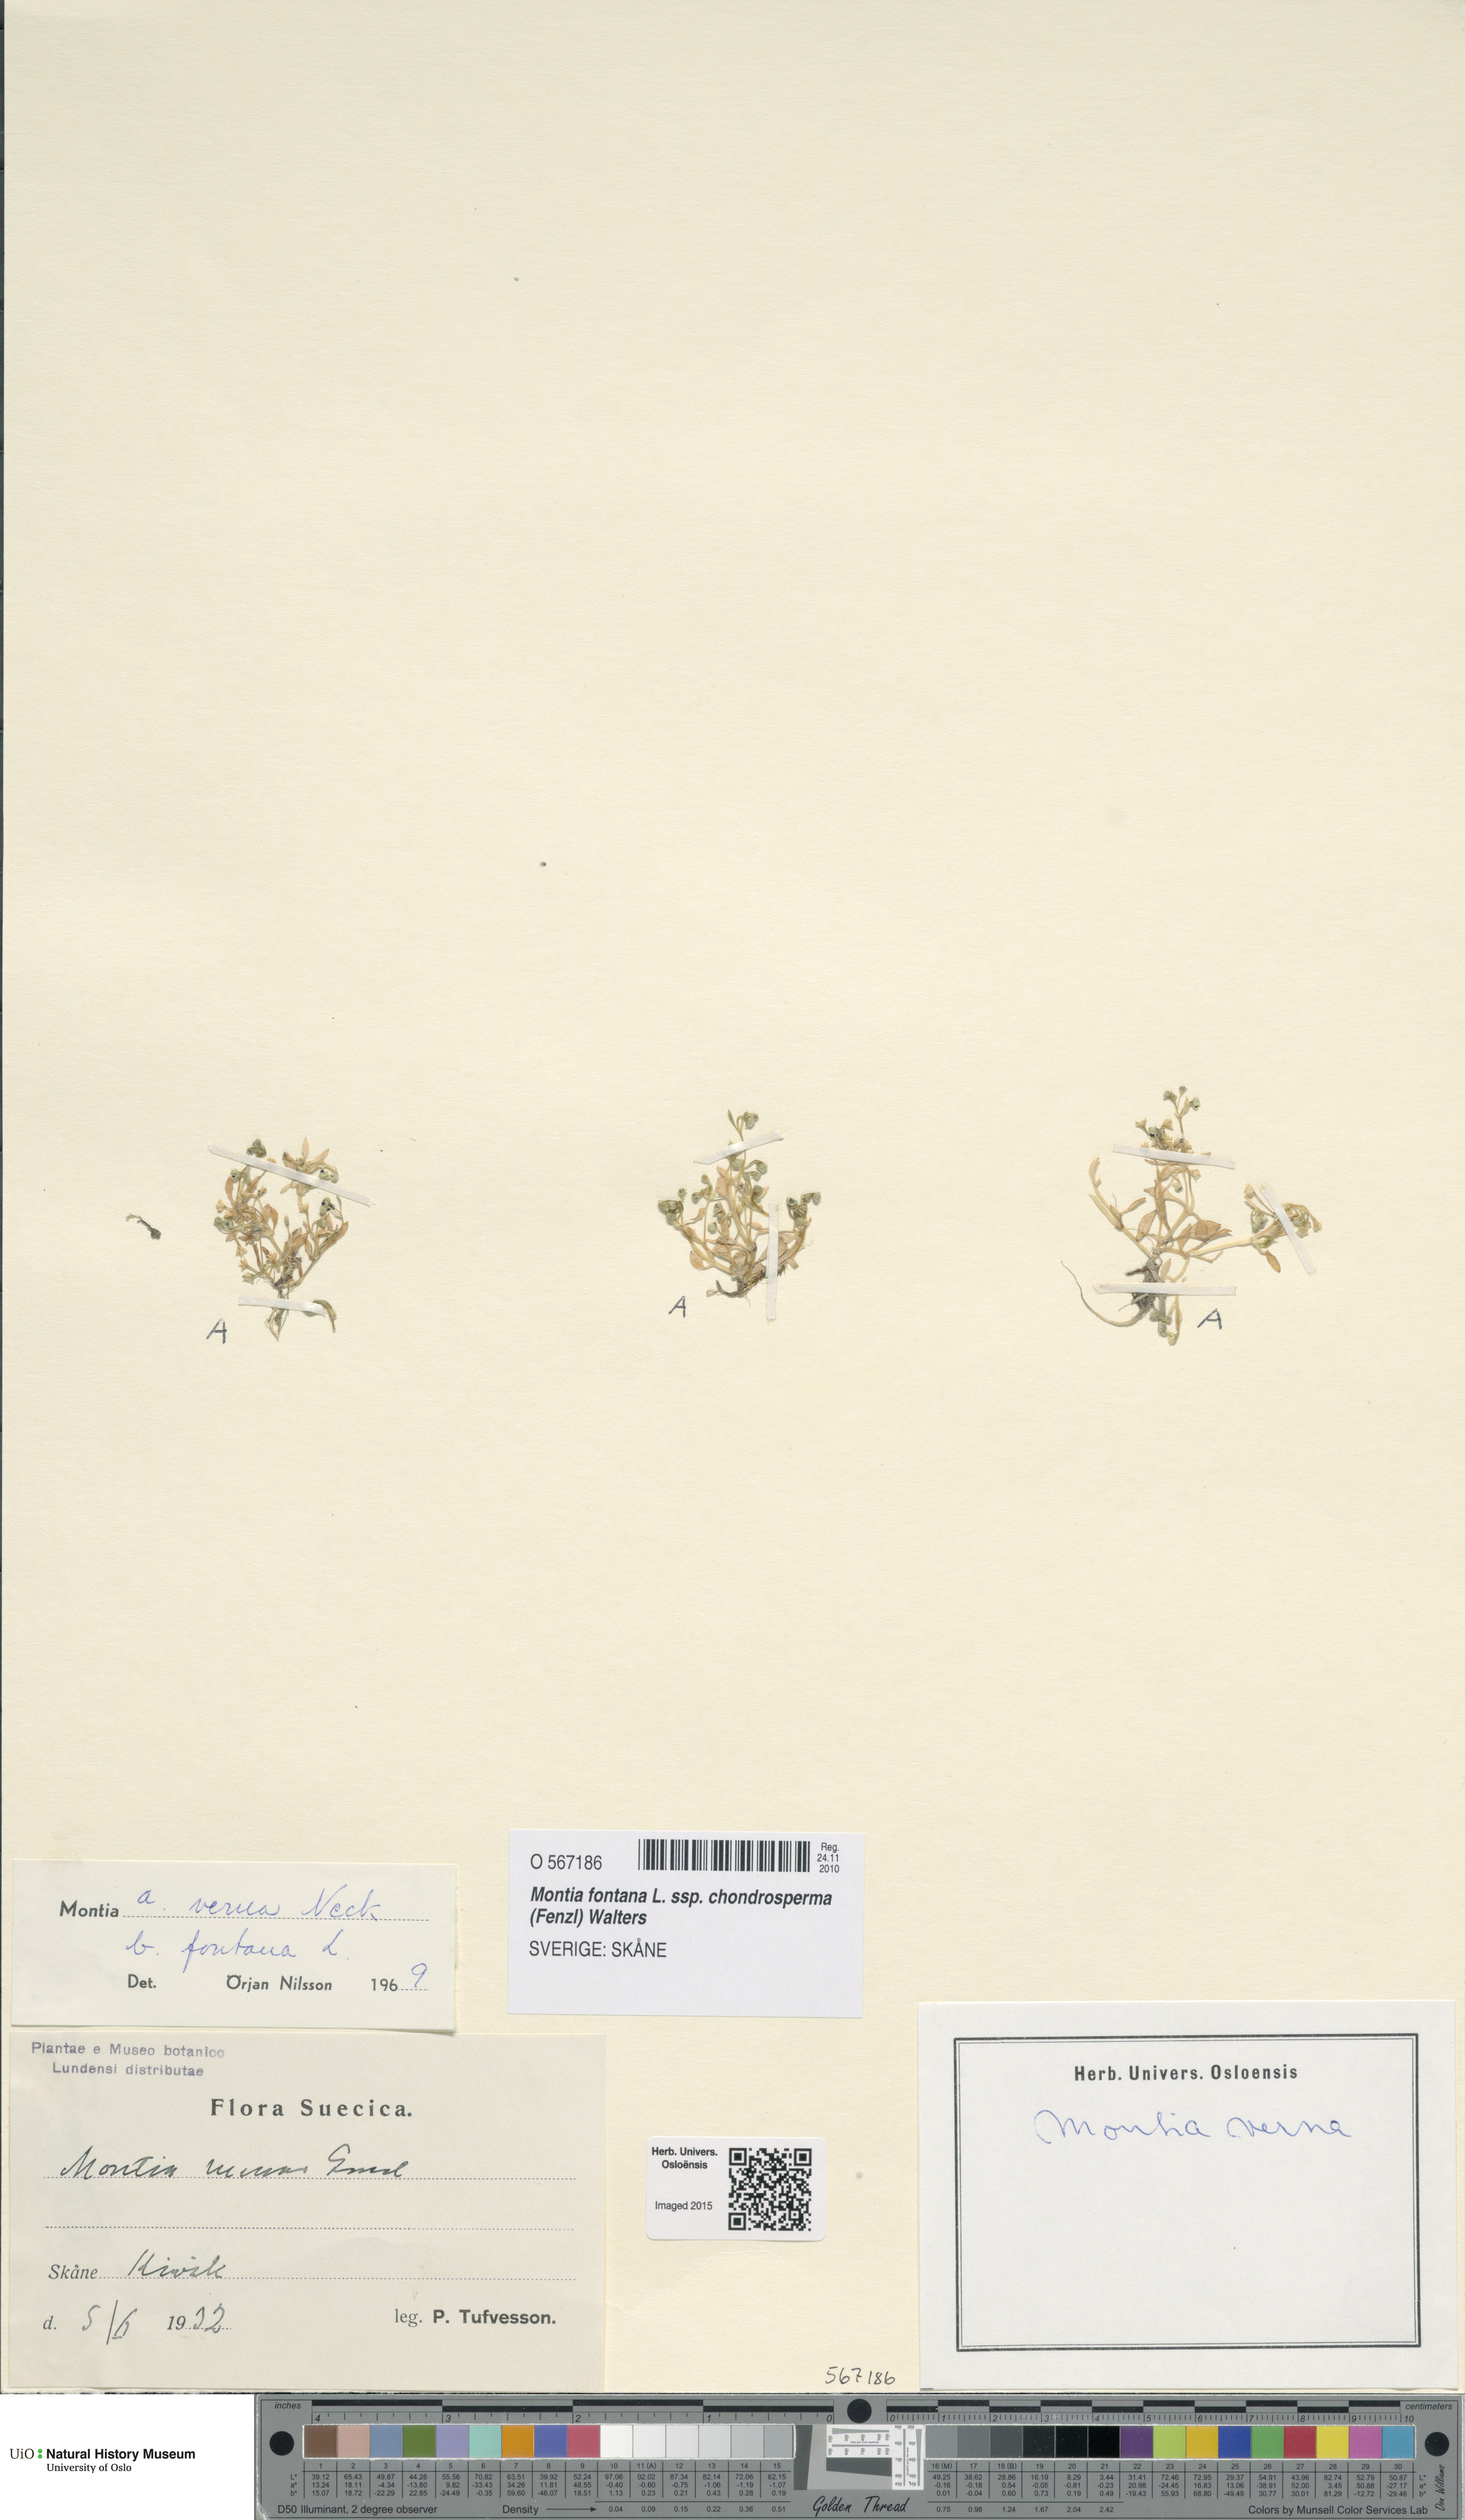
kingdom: Plantae
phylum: Tracheophyta
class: Magnoliopsida
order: Caryophyllales
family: Montiaceae
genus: Montia
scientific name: Montia arvensis
